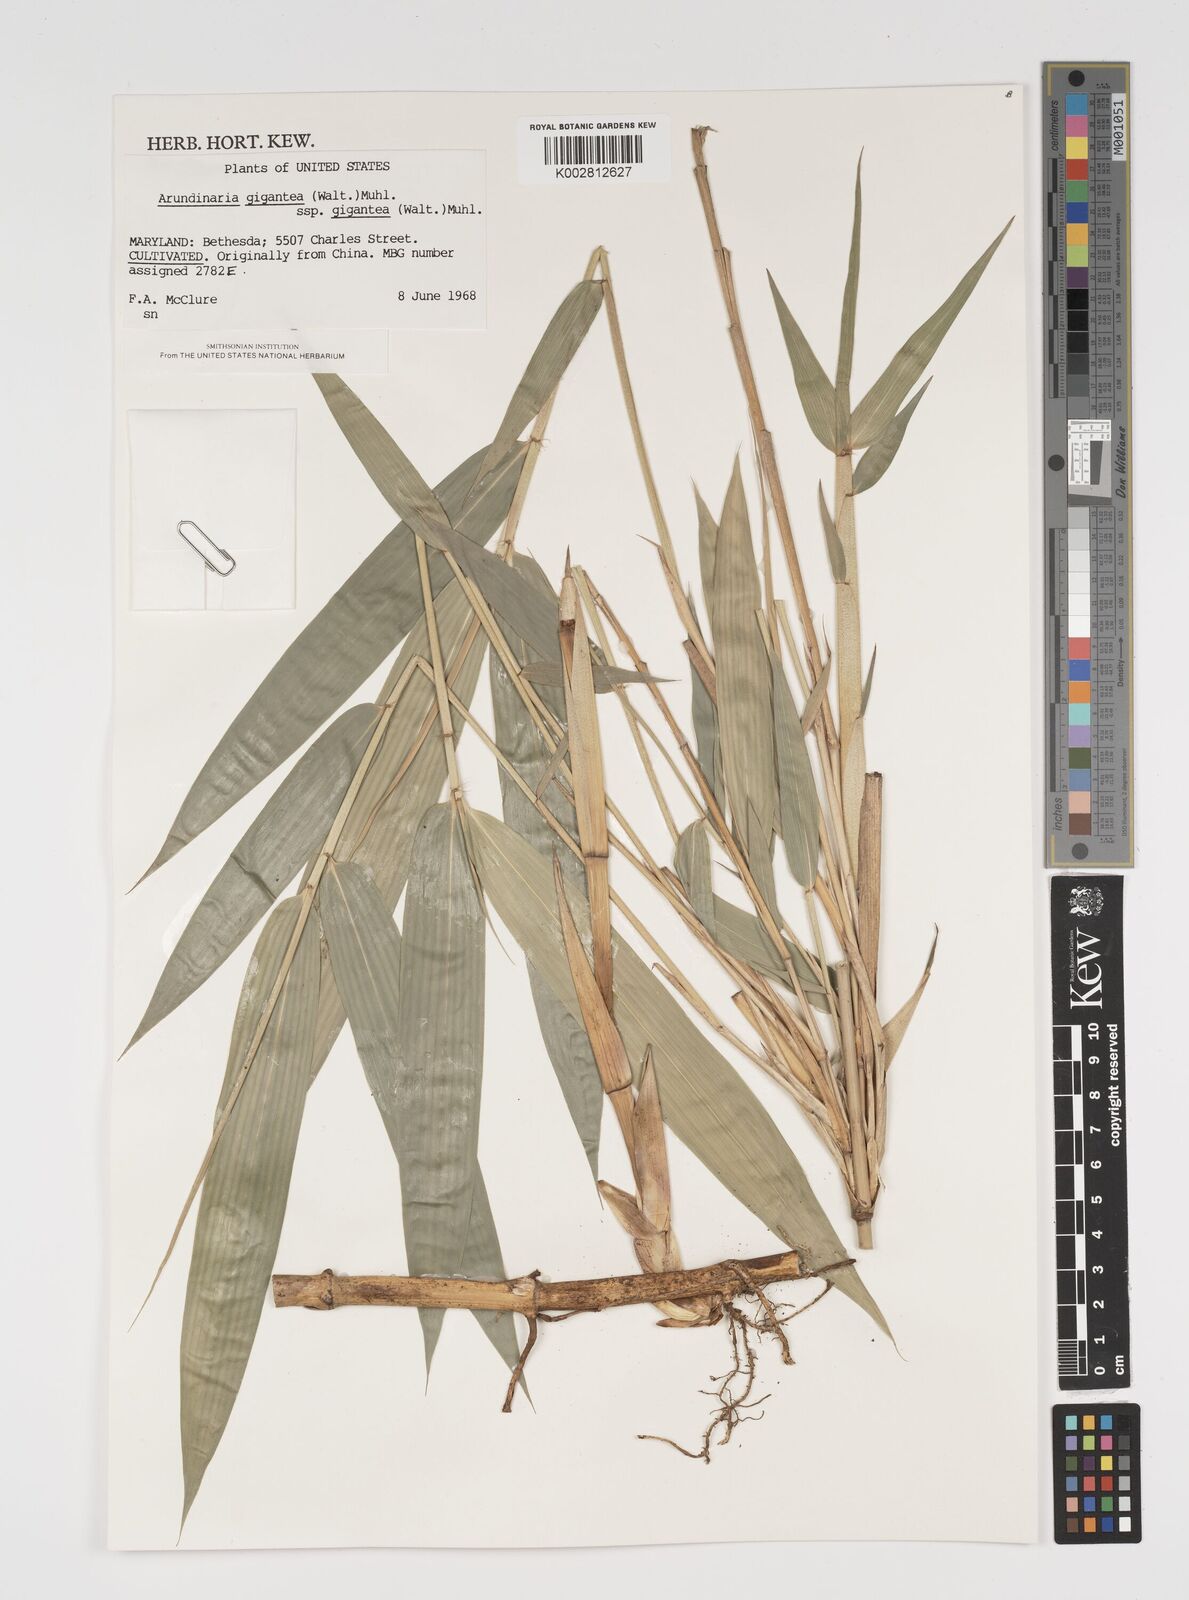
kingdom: Plantae
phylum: Tracheophyta
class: Liliopsida
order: Poales
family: Poaceae
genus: Arundinaria
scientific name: Arundinaria
